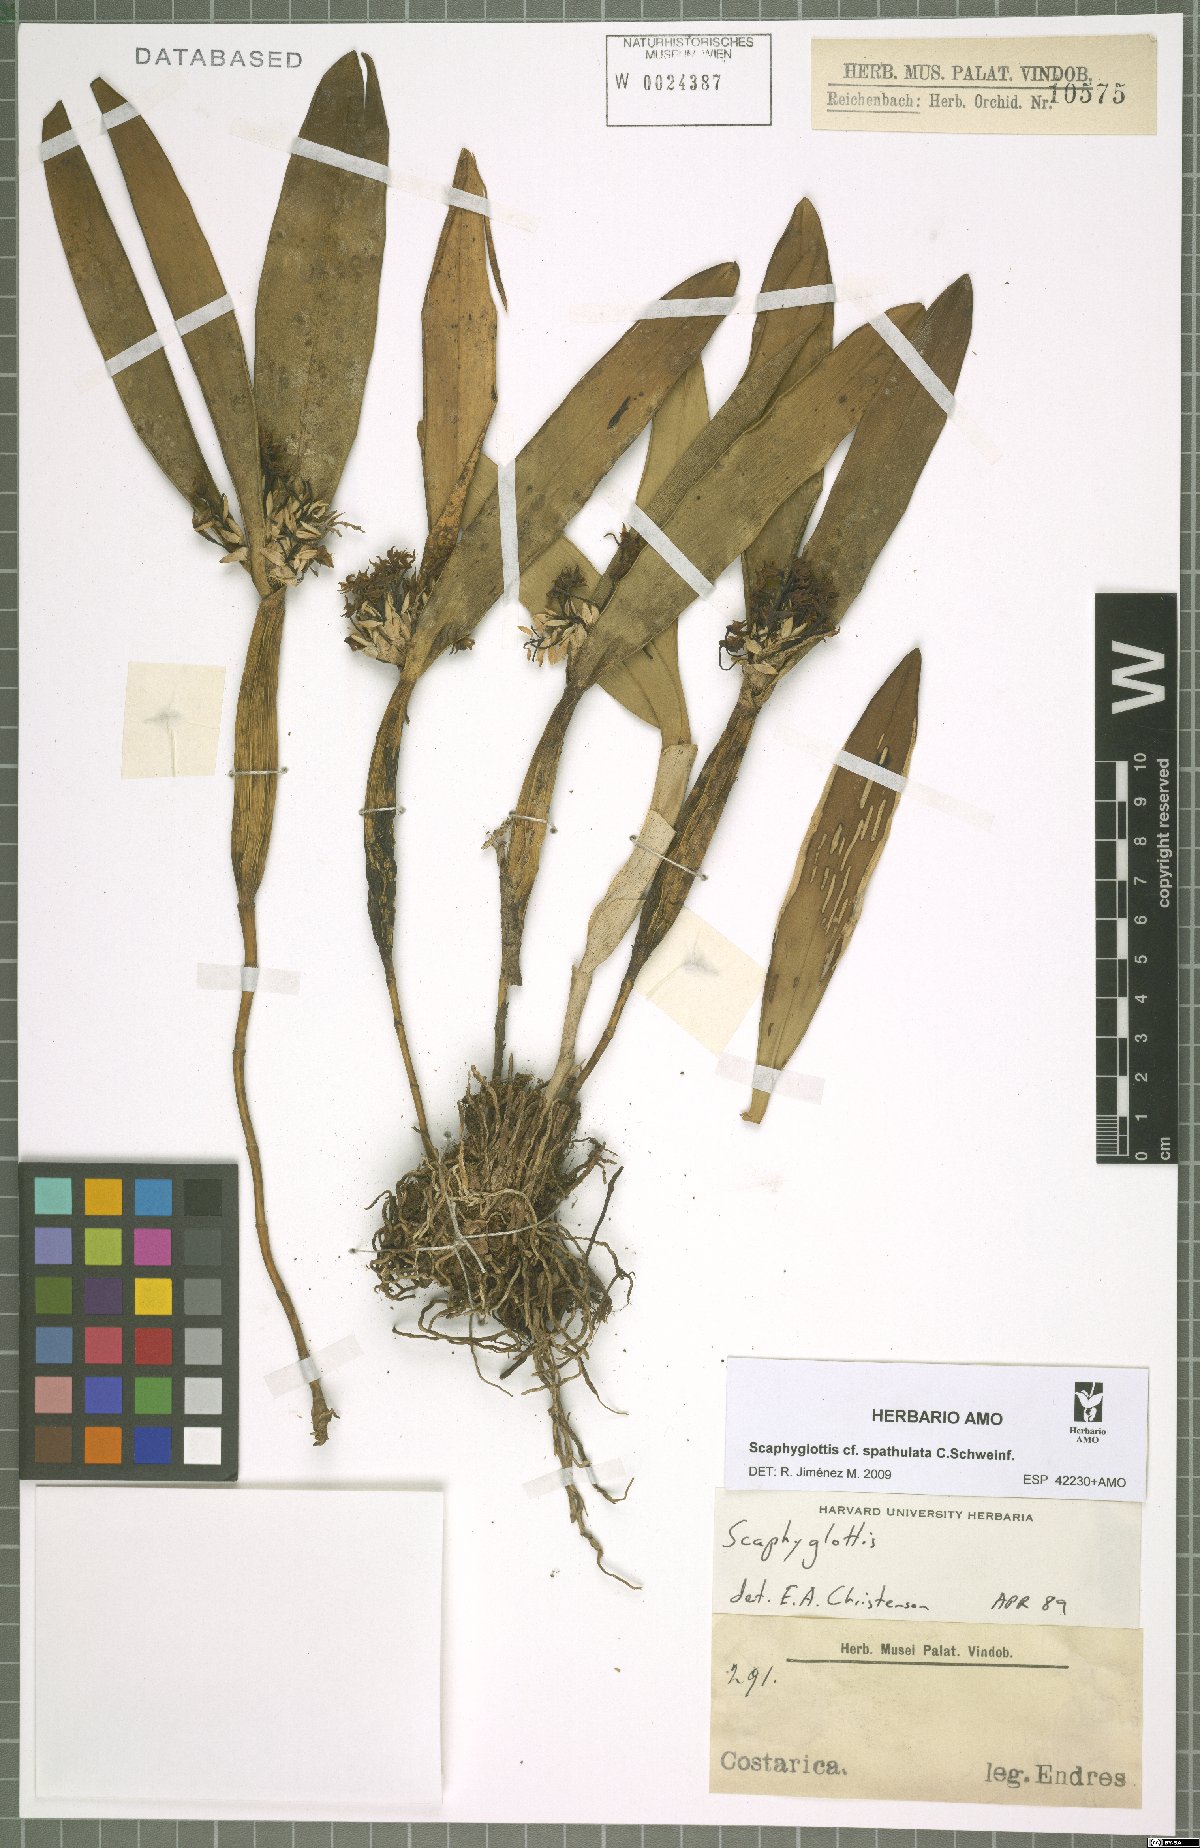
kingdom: Plantae
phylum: Tracheophyta
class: Liliopsida
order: Asparagales
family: Orchidaceae
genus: Scaphyglottis
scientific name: Scaphyglottis spathulata
